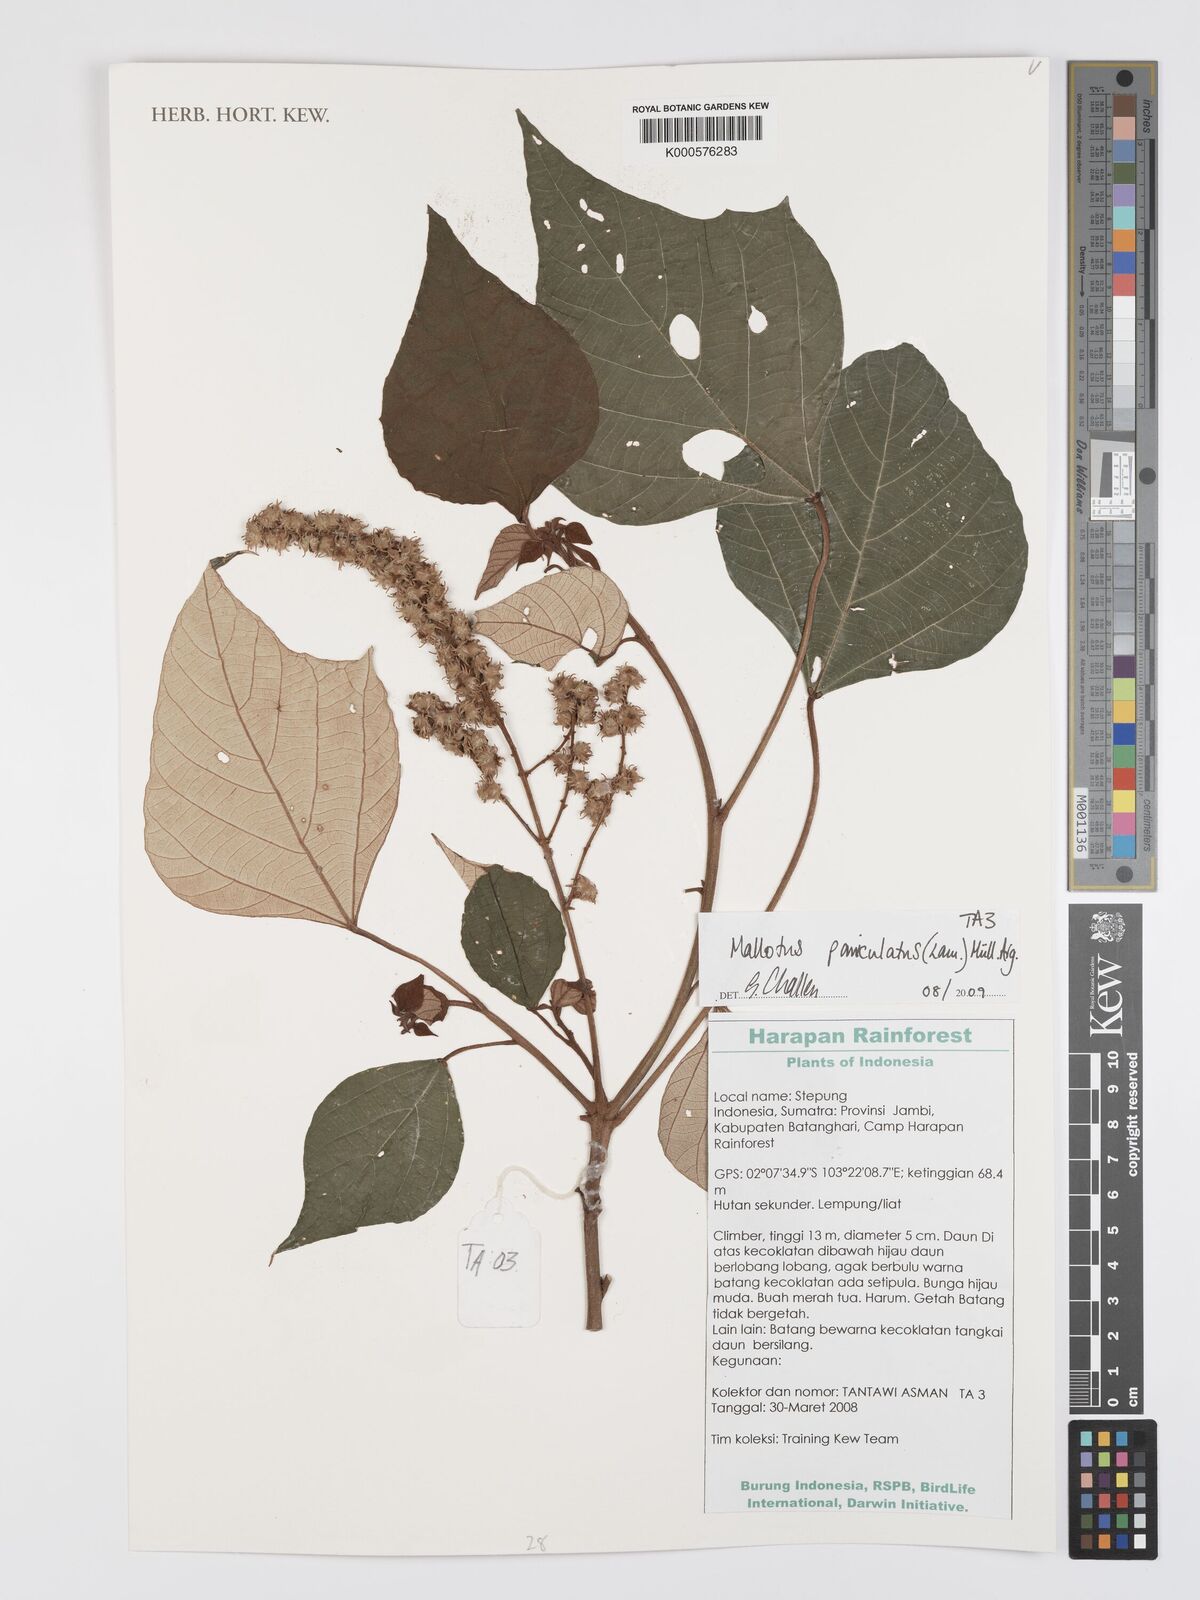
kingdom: Plantae
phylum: Tracheophyta
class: Magnoliopsida
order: Malpighiales
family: Euphorbiaceae
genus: Mallotus
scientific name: Mallotus
